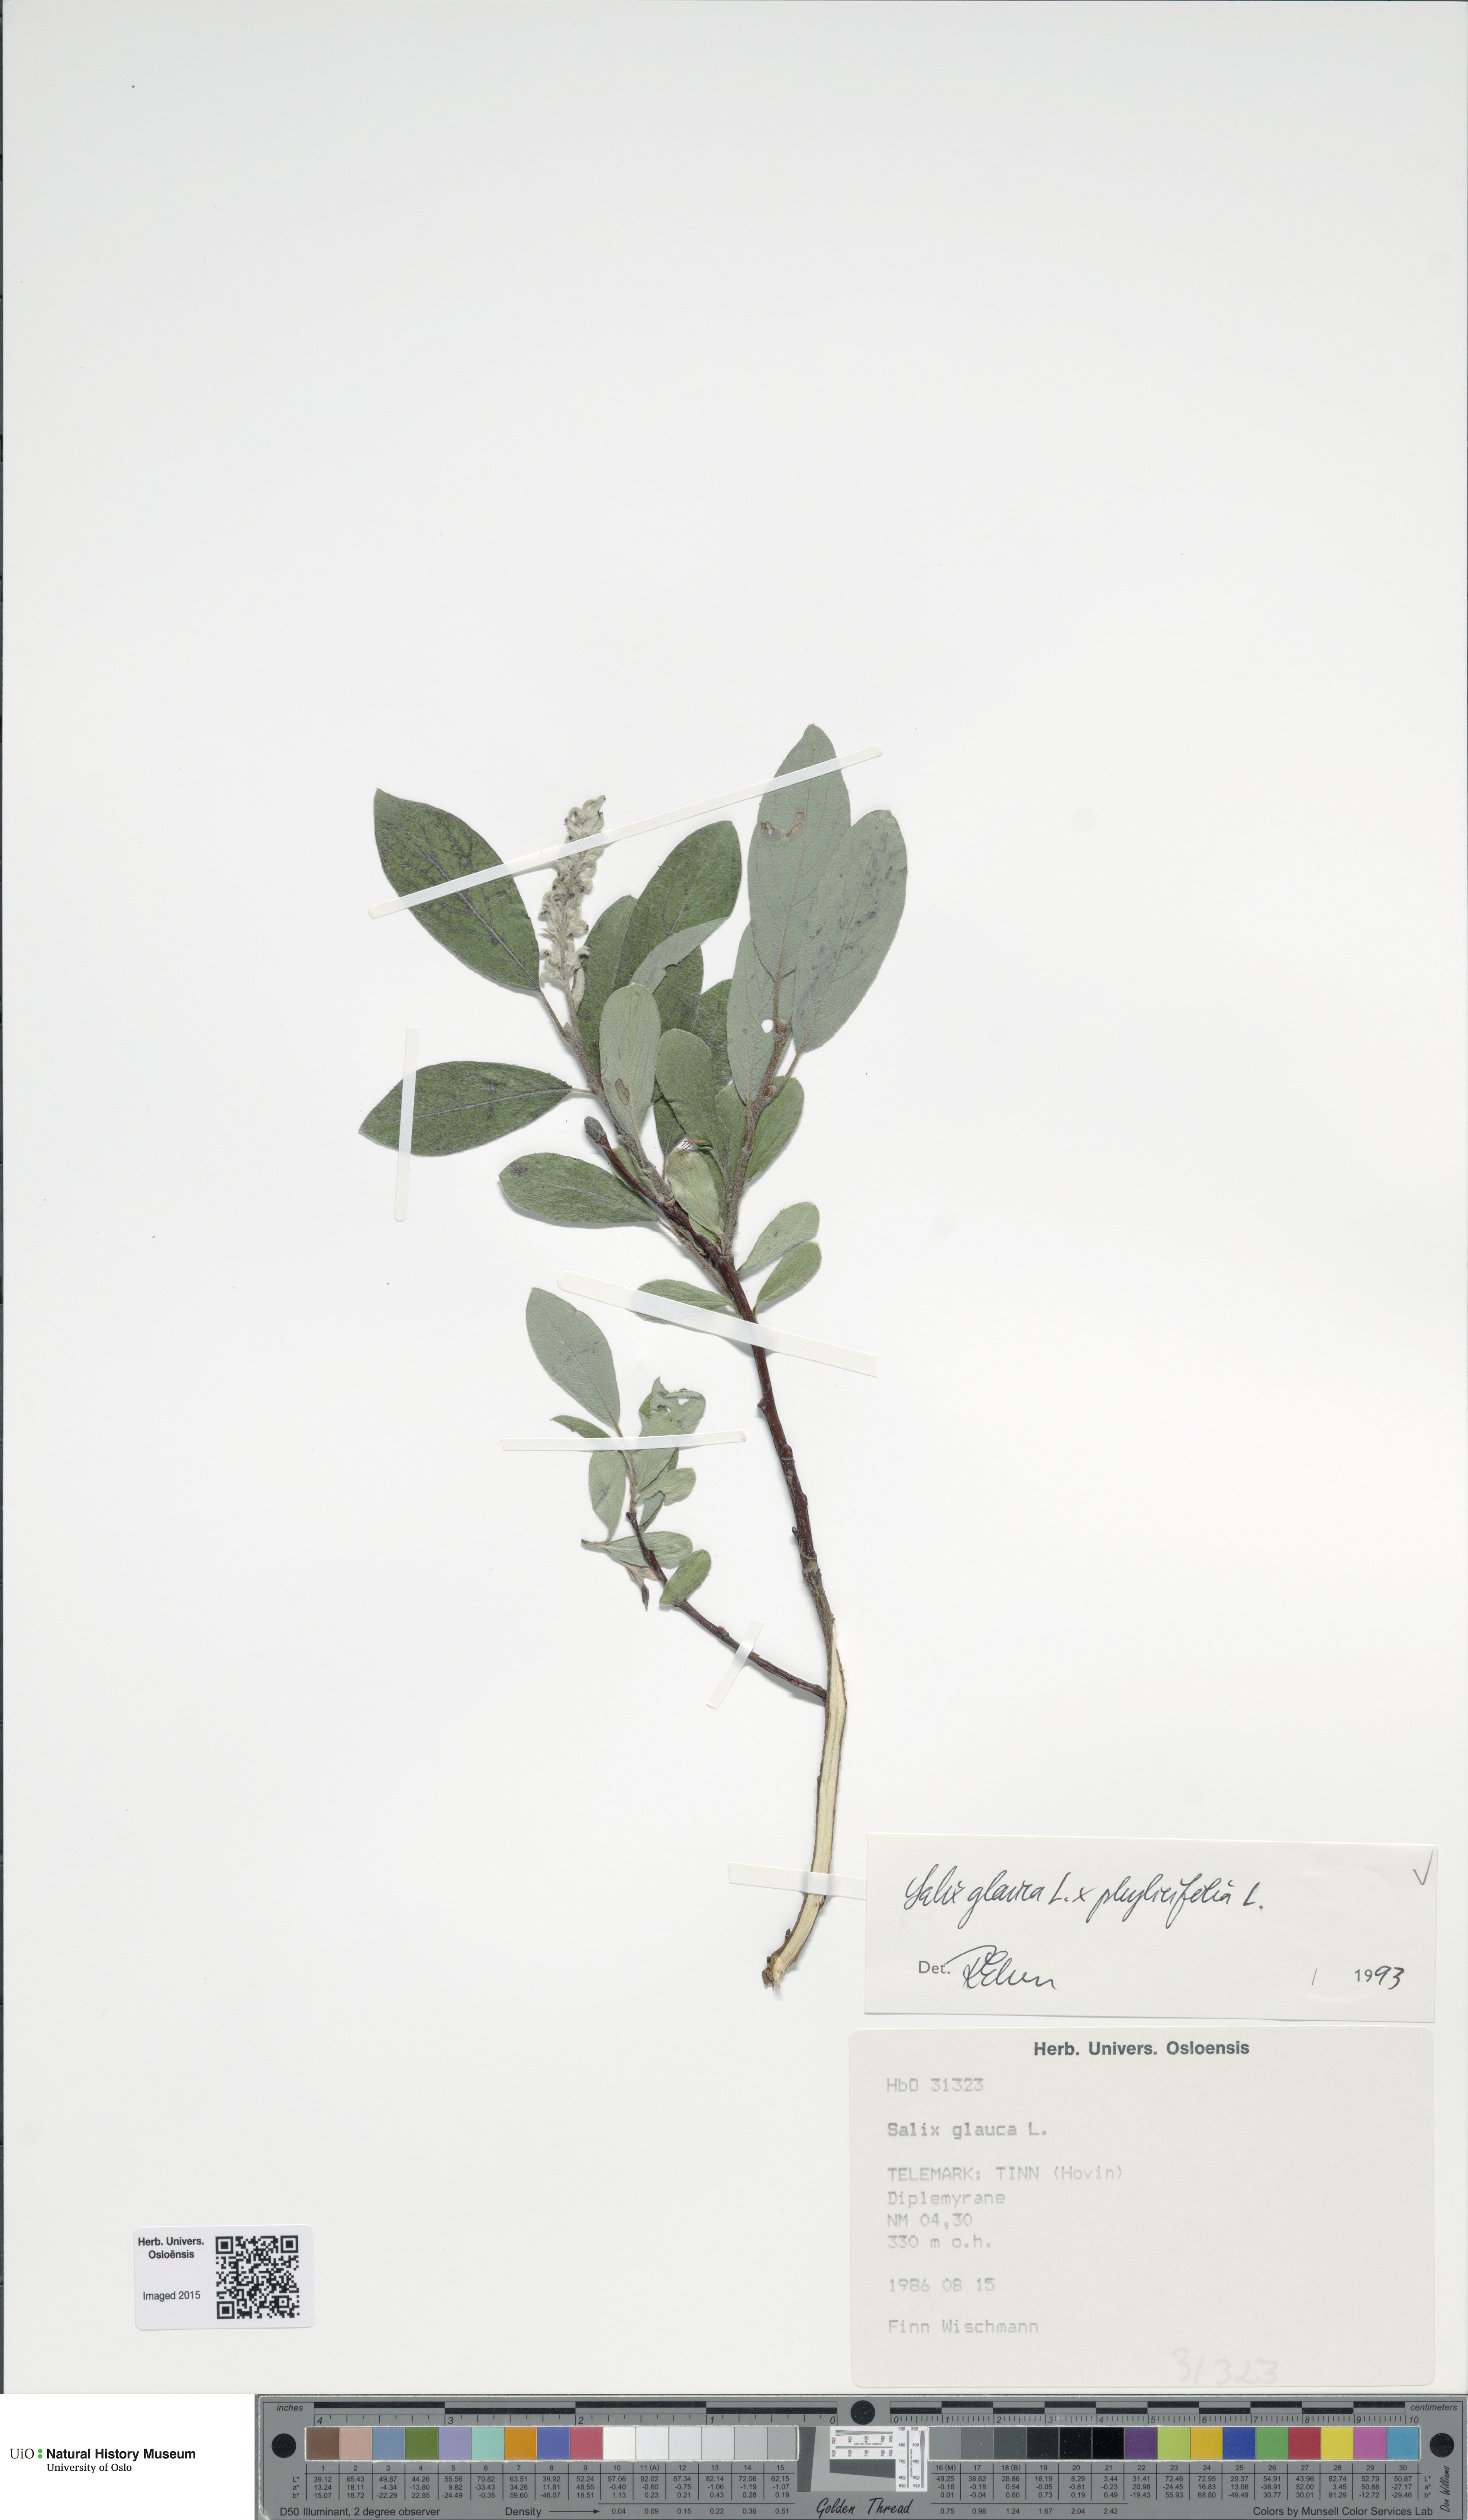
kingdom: Plantae
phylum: Tracheophyta
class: Magnoliopsida
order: Malpighiales
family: Salicaceae
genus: Salix
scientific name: Salix
